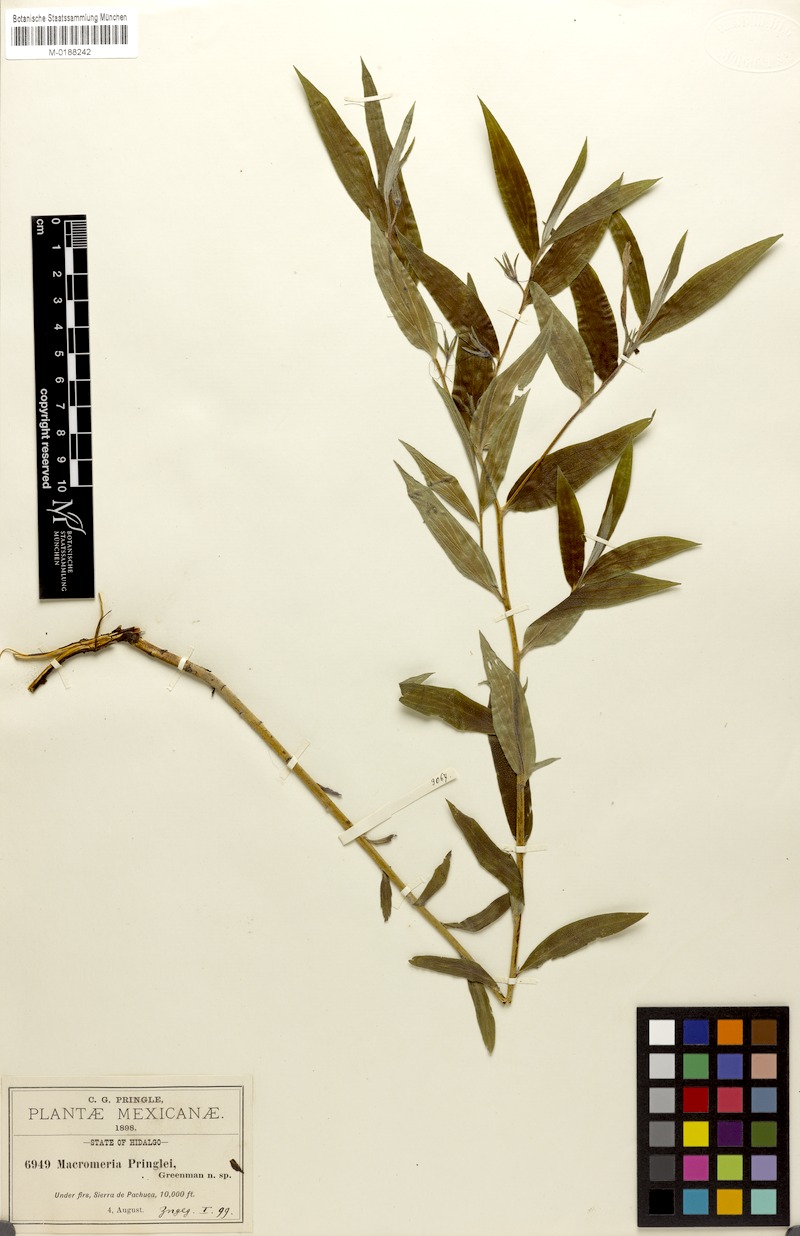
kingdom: Plantae
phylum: Tracheophyta
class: Magnoliopsida
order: Boraginales
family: Boraginaceae
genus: Lithospermum
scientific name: Lithospermum rzedowskii
